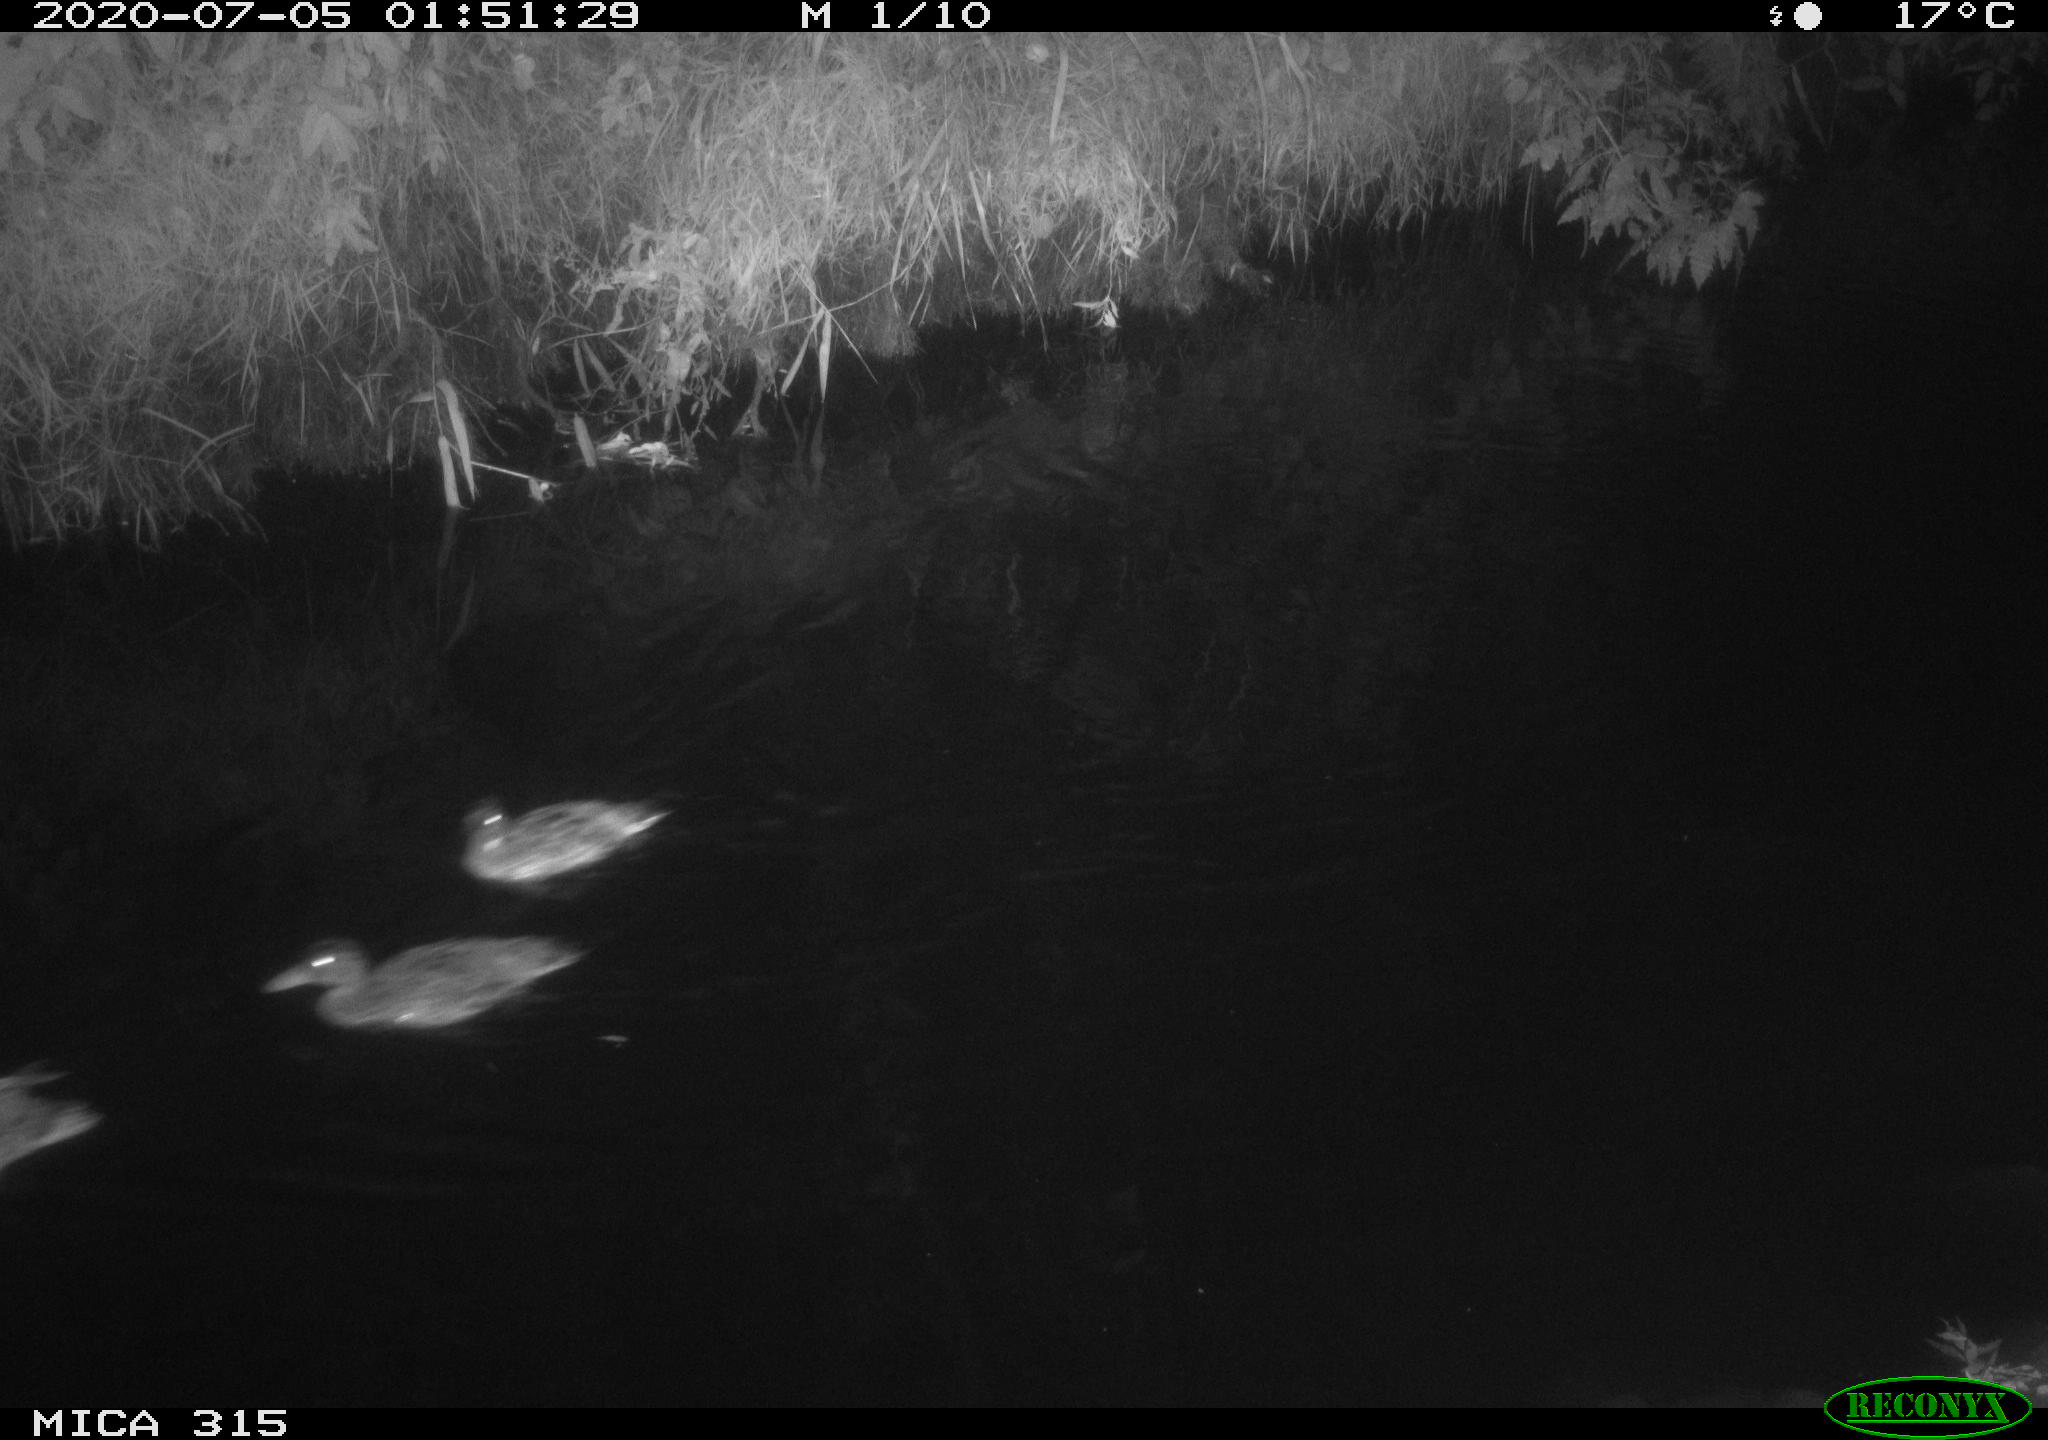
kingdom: Animalia
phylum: Chordata
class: Aves
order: Anseriformes
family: Anatidae
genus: Anas
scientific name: Anas platyrhynchos
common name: Mallard
